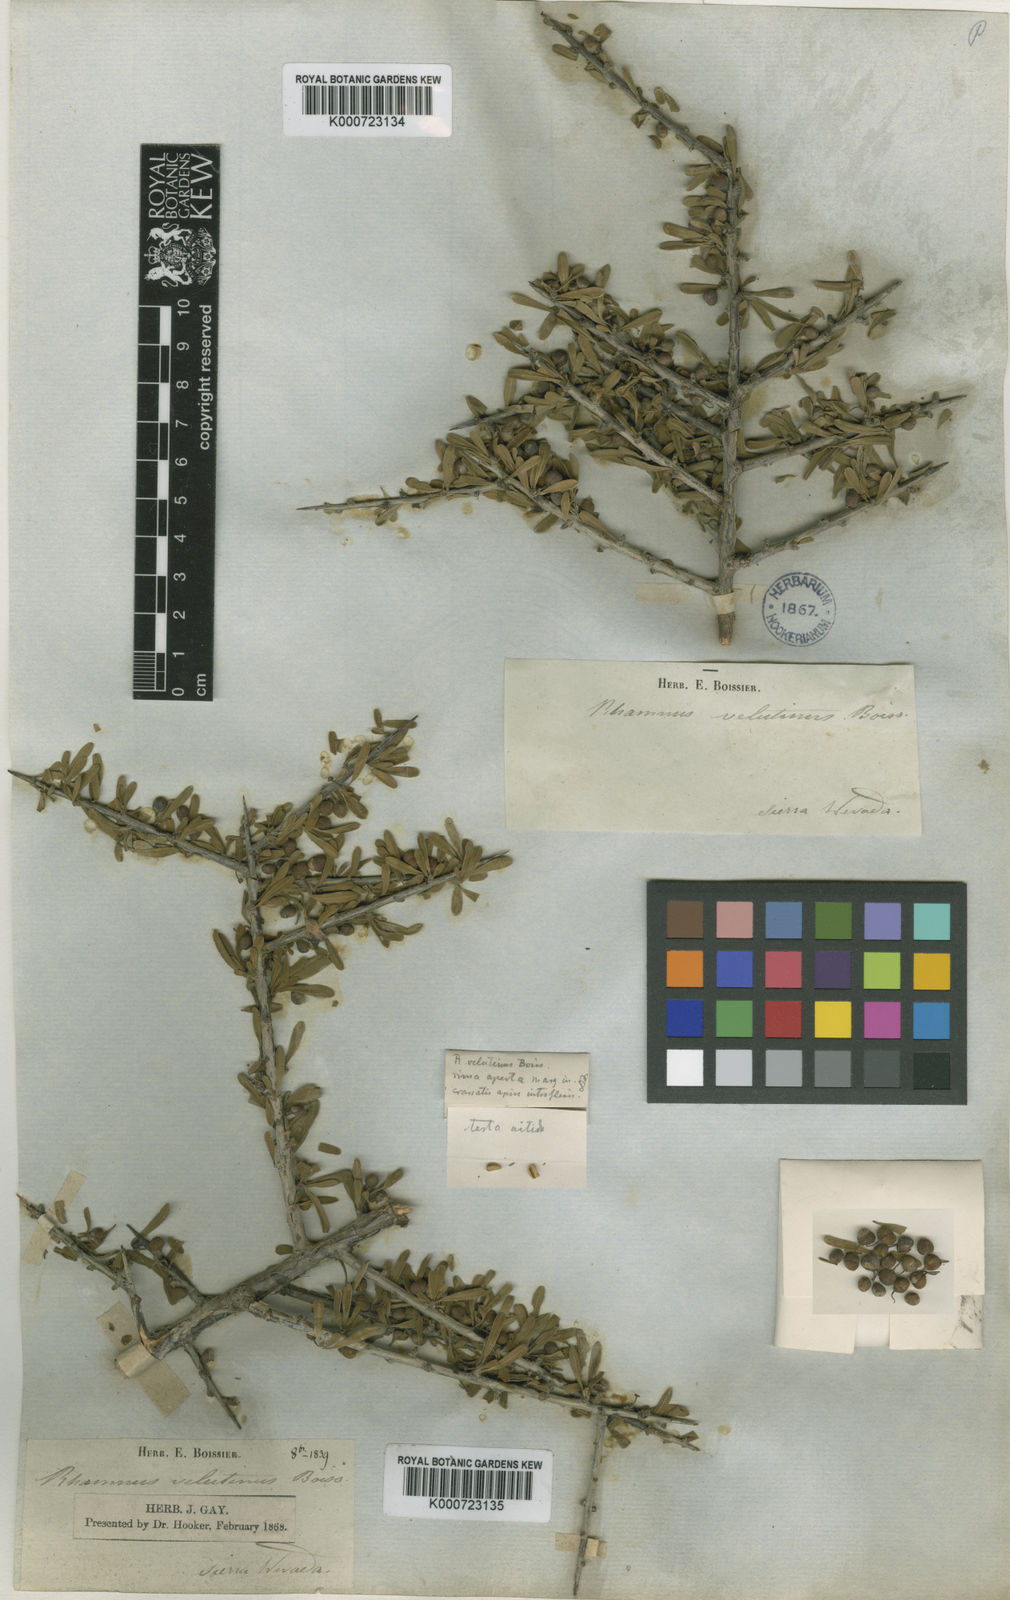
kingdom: Plantae
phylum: Tracheophyta
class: Magnoliopsida
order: Rosales
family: Rhamnaceae
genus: Rhamnus
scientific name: Rhamnus velutina
